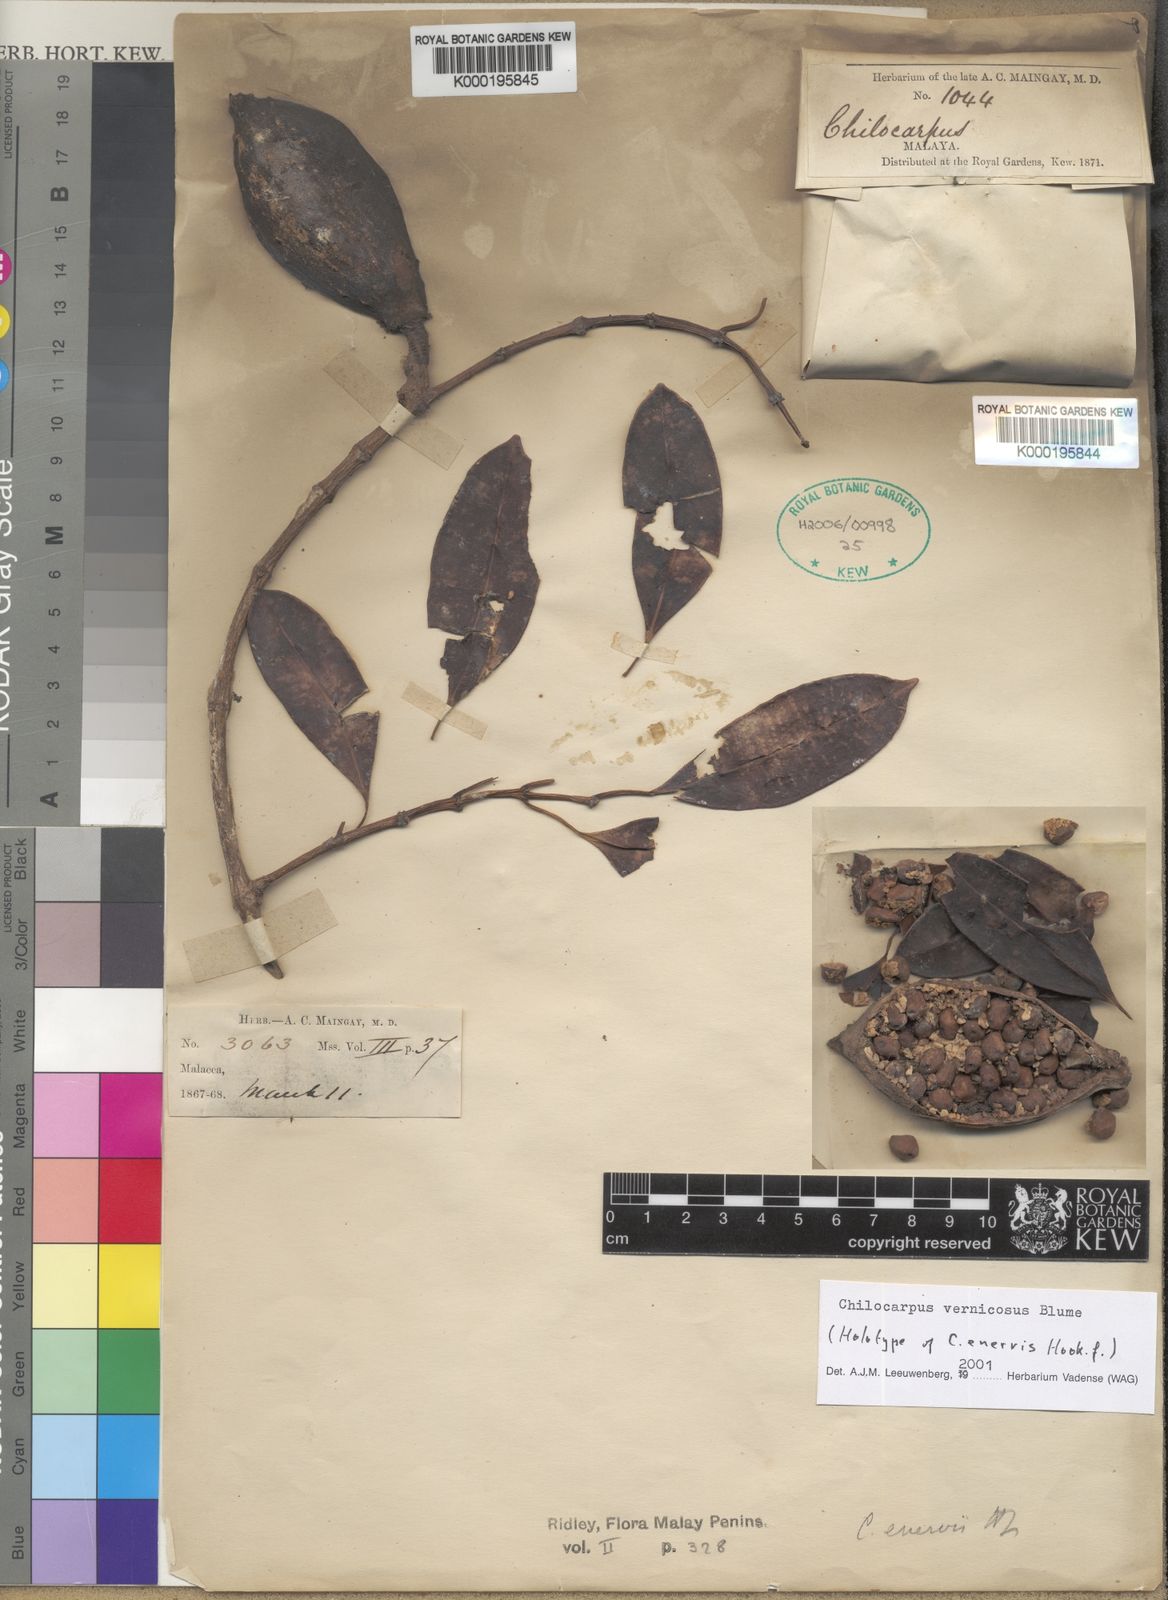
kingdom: Plantae
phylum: Tracheophyta
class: Magnoliopsida
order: Gentianales
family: Apocynaceae
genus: Chilocarpus
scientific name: Chilocarpus vernicosus
